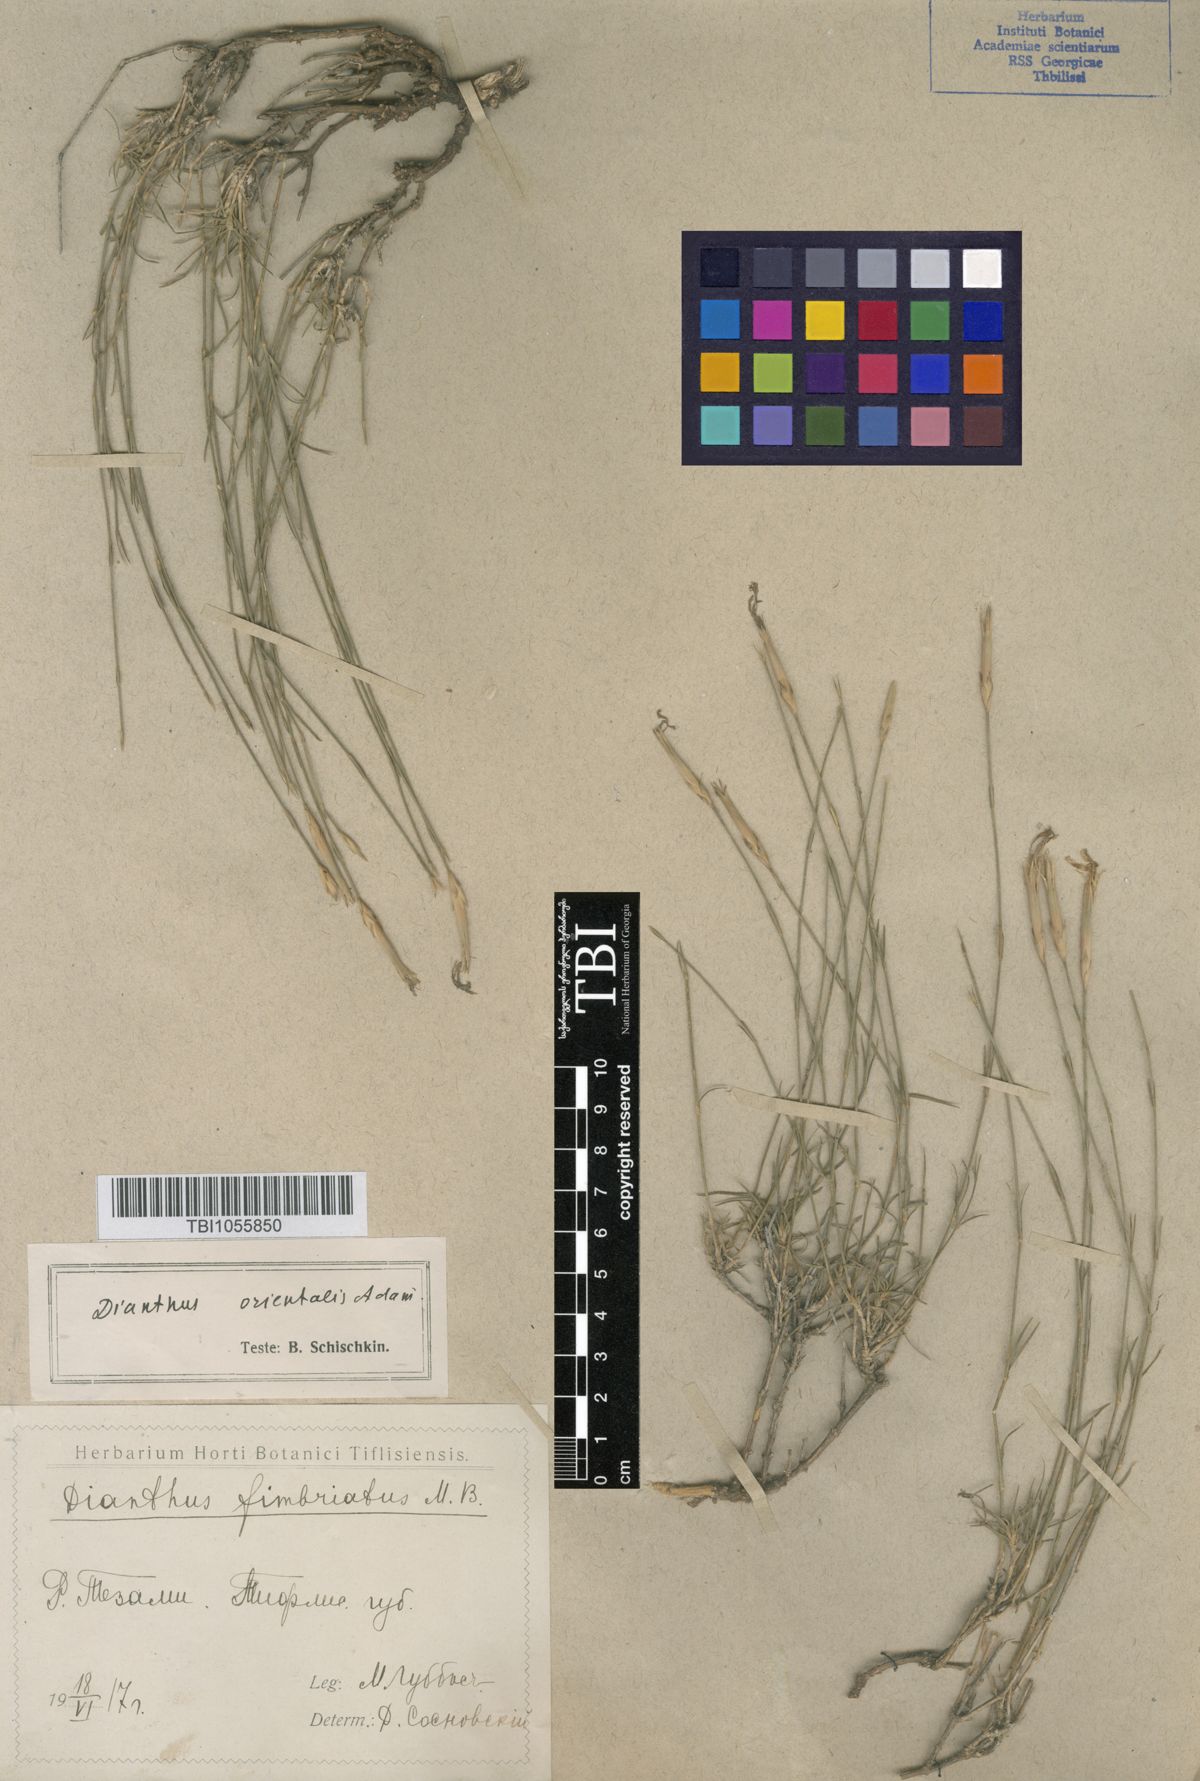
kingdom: Plantae
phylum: Tracheophyta
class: Magnoliopsida
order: Caryophyllales
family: Caryophyllaceae
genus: Dianthus
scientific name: Dianthus orientalis
